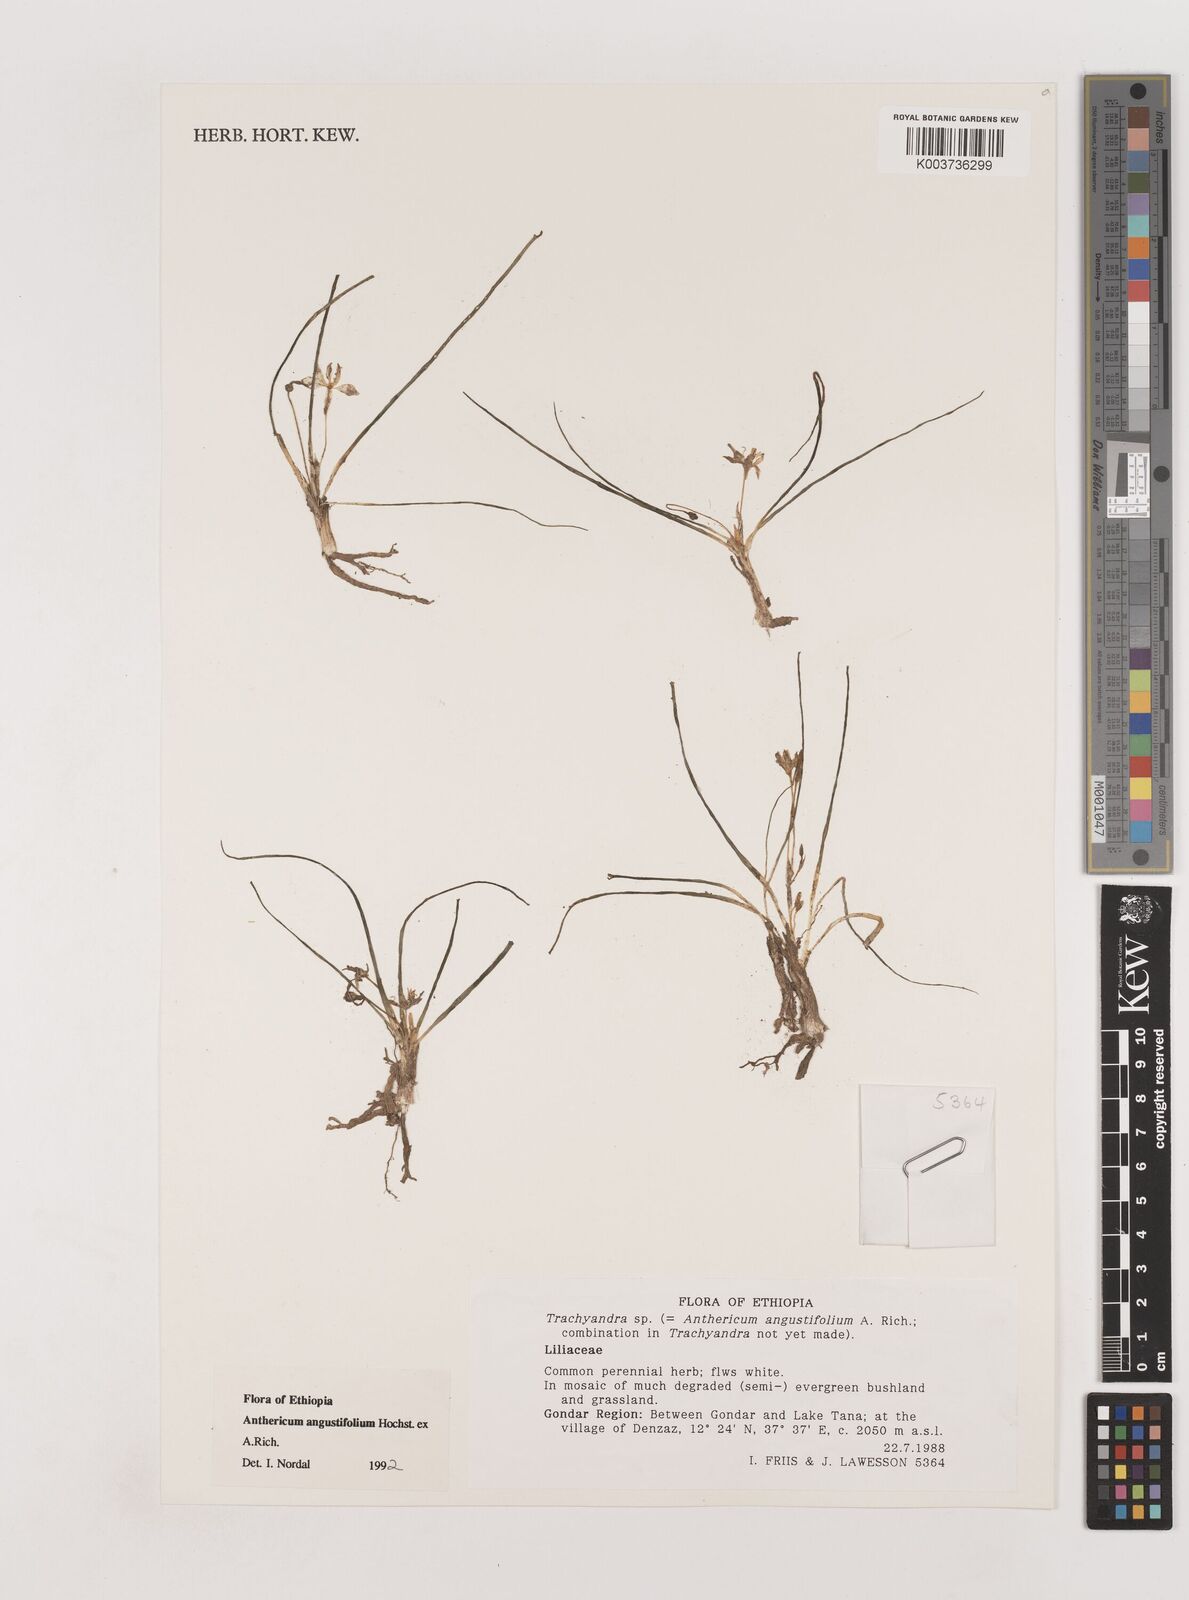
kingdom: Plantae
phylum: Tracheophyta
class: Liliopsida
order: Asparagales
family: Asparagaceae
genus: Anthericum
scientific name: Anthericum angustifolium
